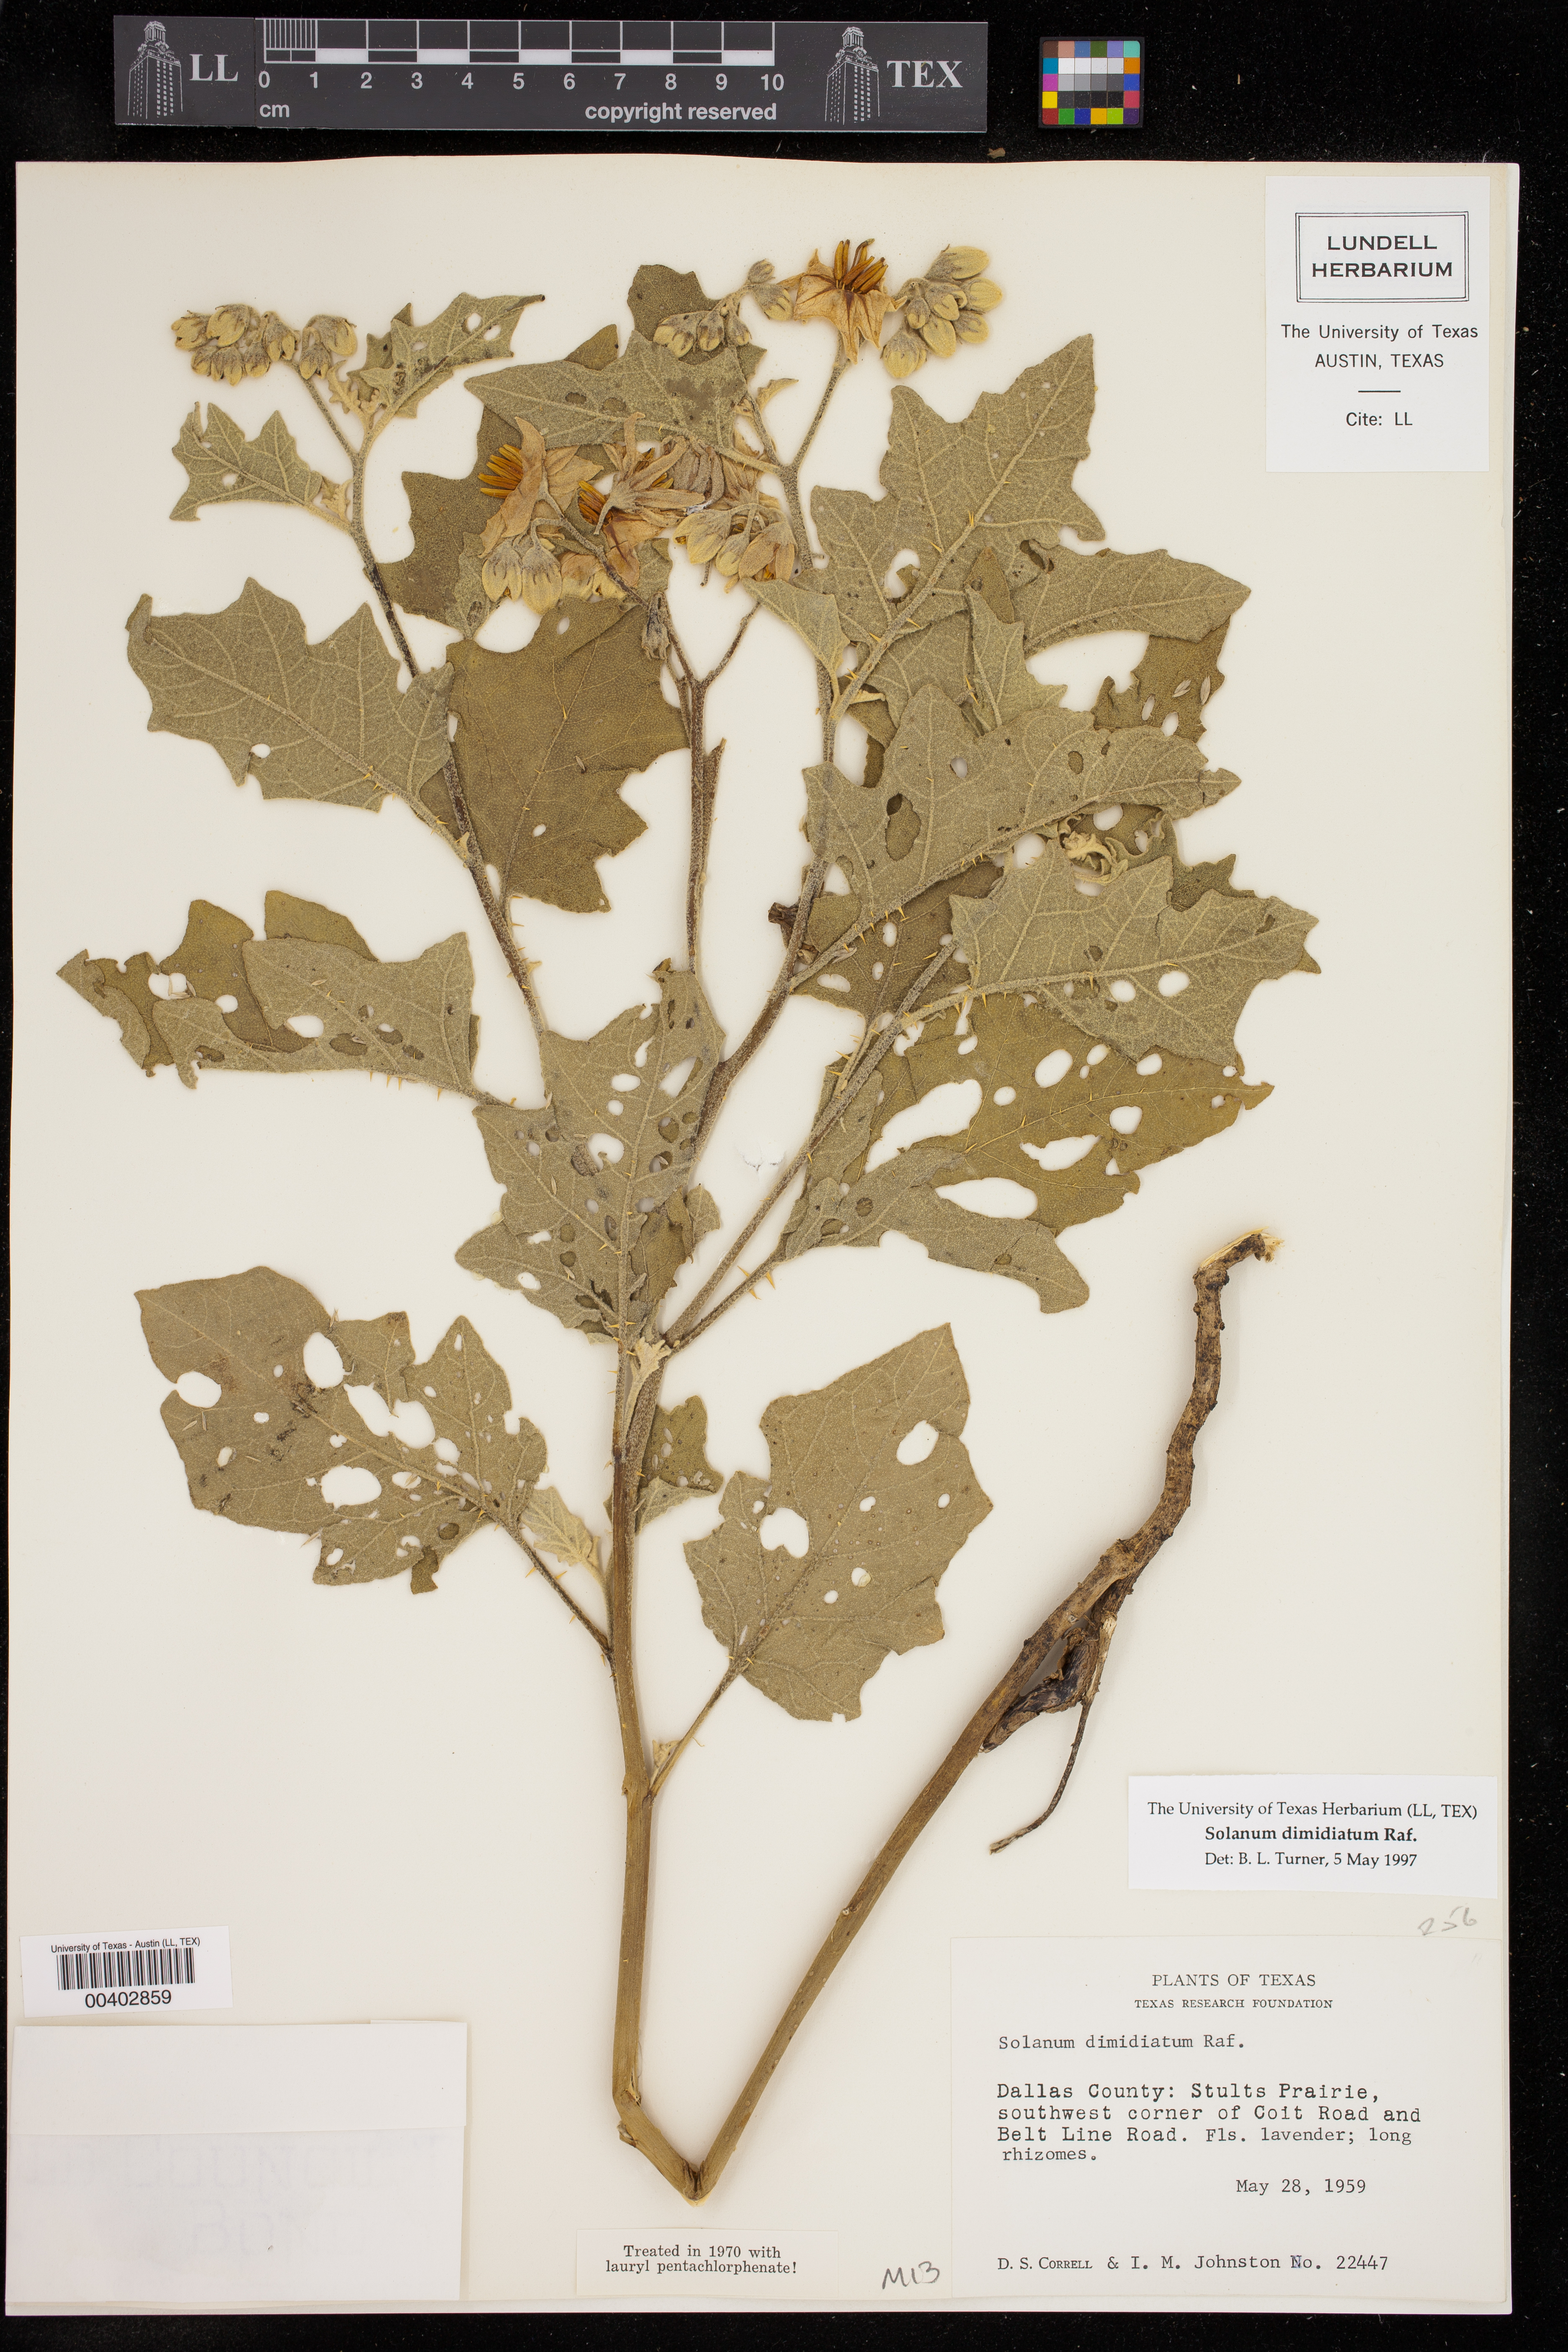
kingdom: Plantae
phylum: Tracheophyta
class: Magnoliopsida
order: Solanales
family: Solanaceae
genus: Solanum
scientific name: Solanum dimidiatum
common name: Carolina horse-nettle
